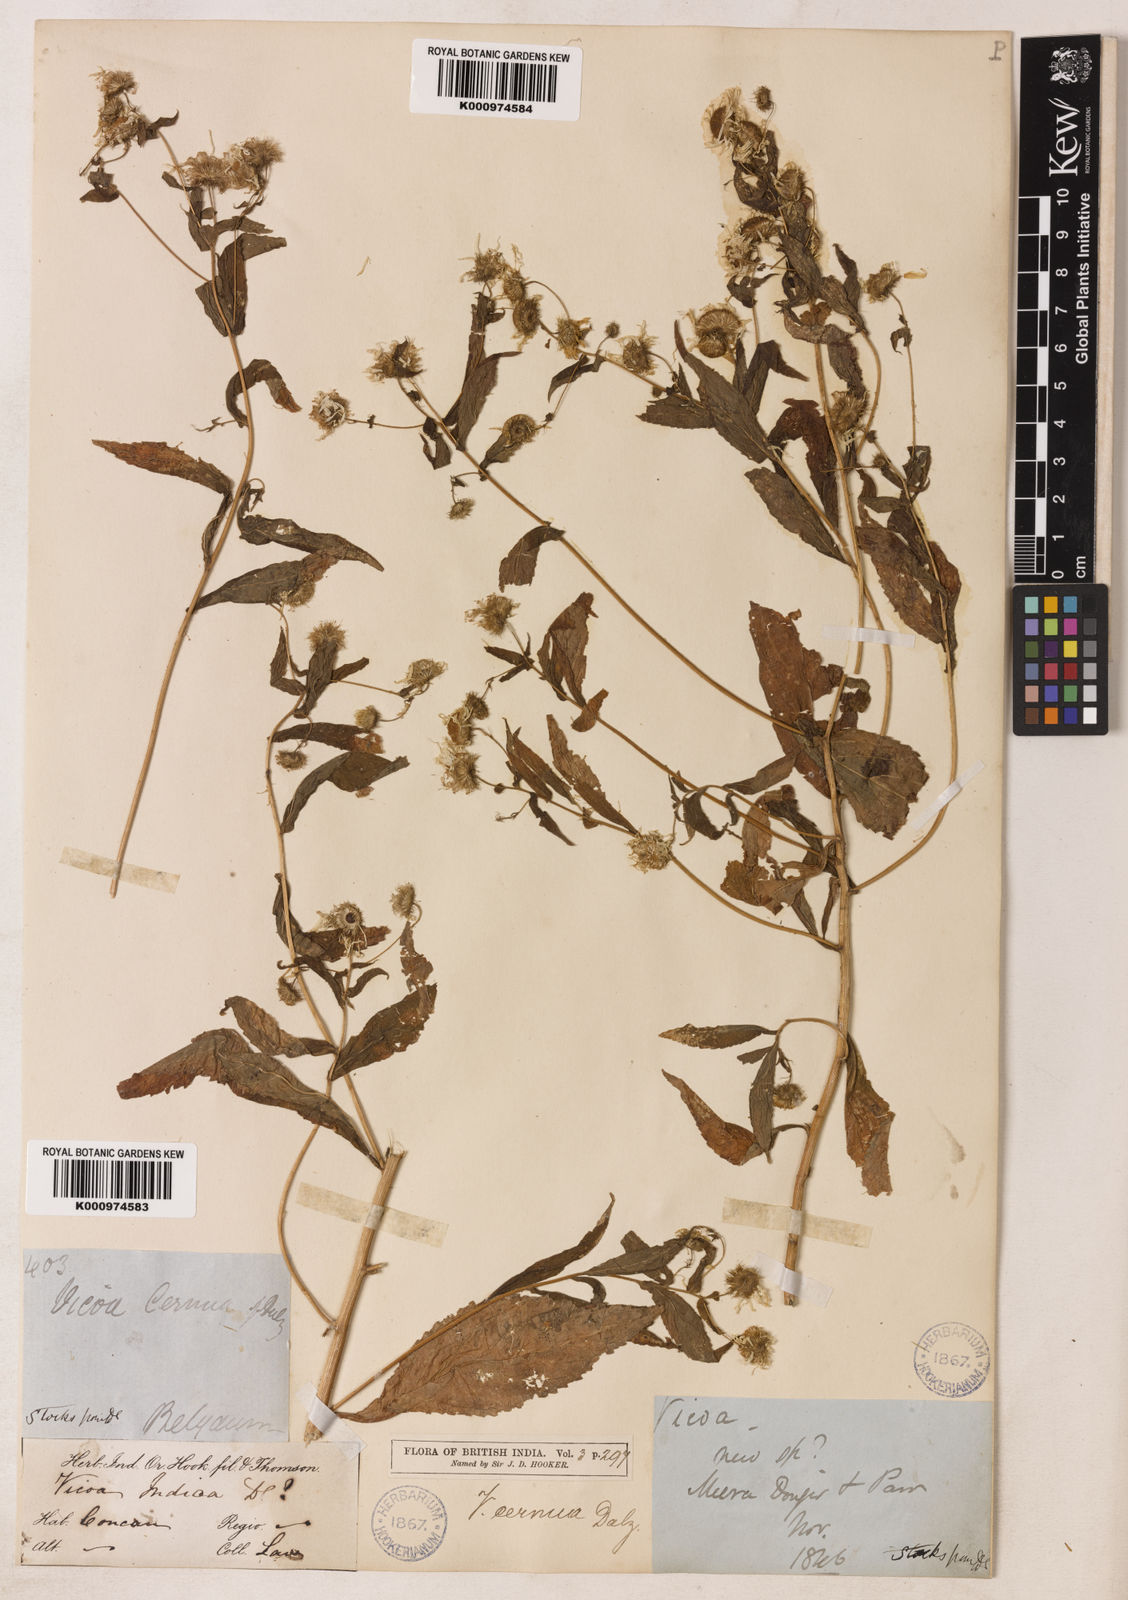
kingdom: Plantae
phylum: Tracheophyta
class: Magnoliopsida
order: Asterales
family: Asteraceae
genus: Vicoa
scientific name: Vicoa cernua
